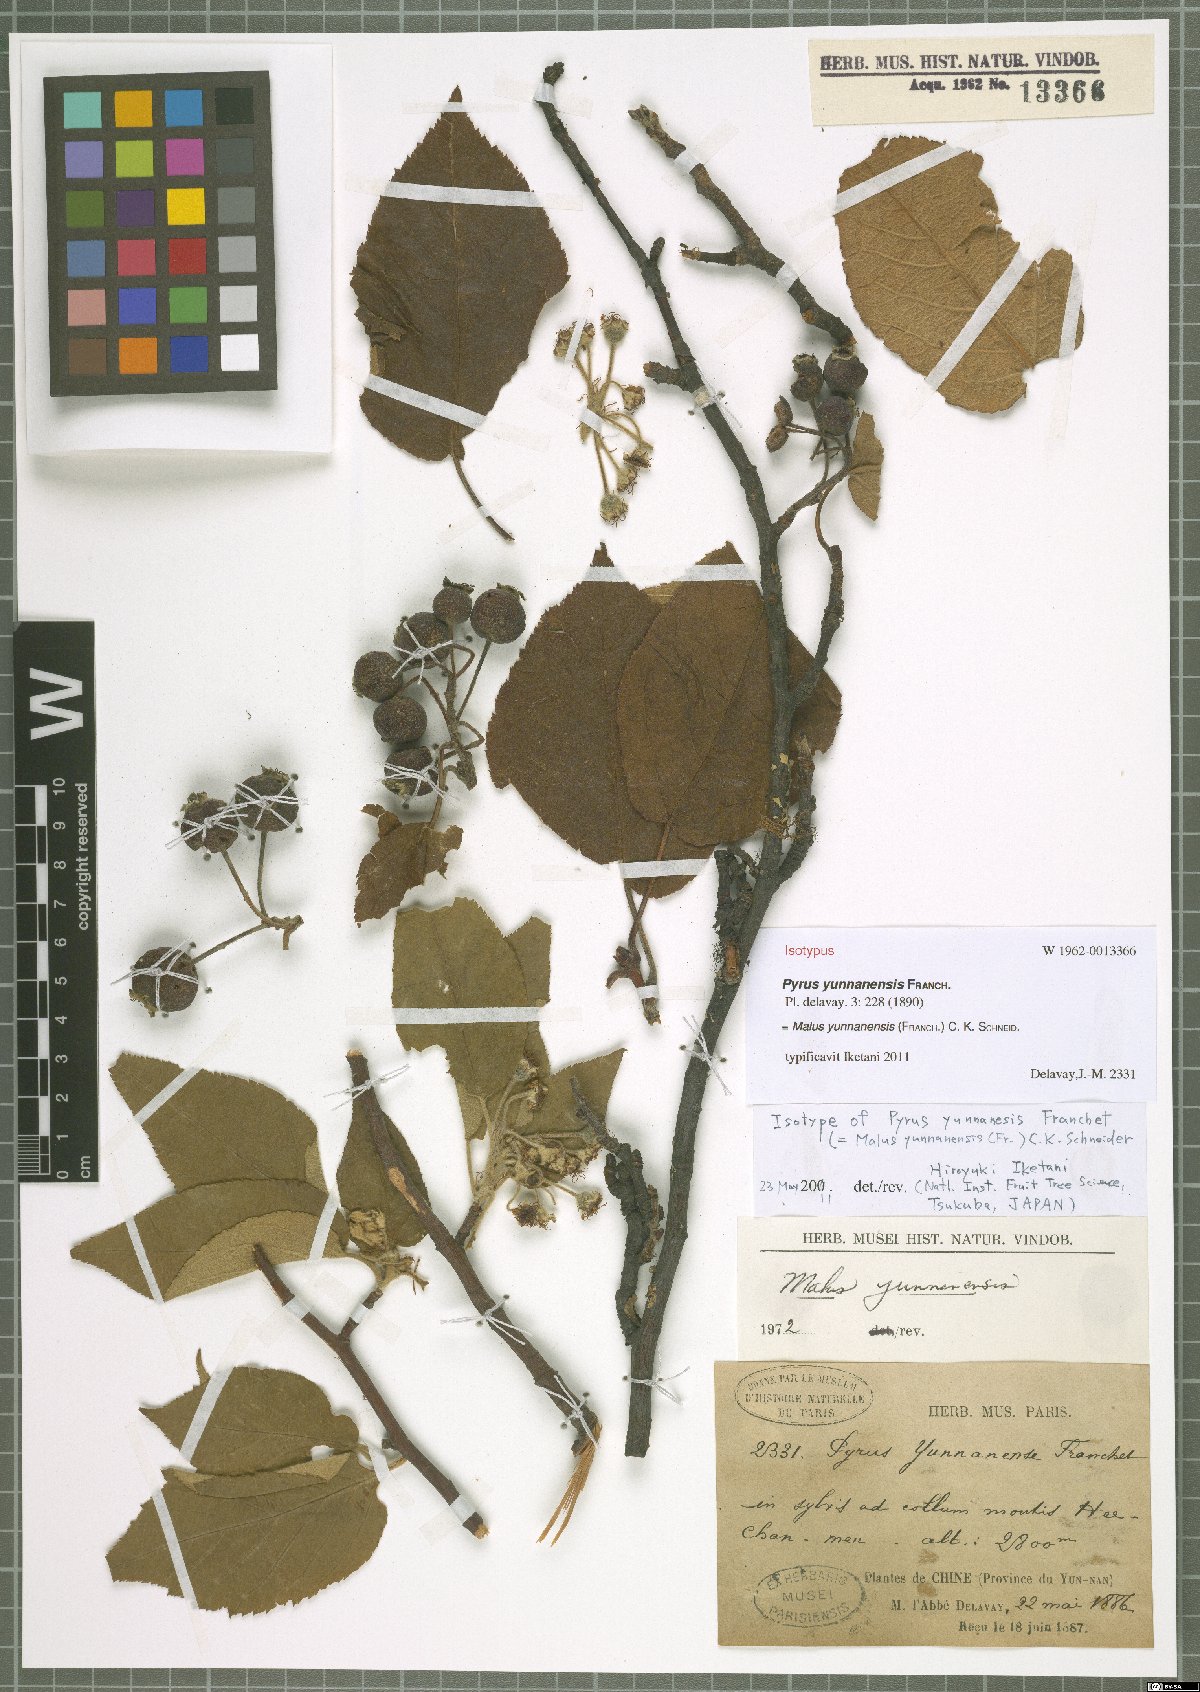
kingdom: Plantae
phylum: Tracheophyta
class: Magnoliopsida
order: Rosales
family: Rosaceae
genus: Malus
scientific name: Malus yunnanensis
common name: Yunnan crabapple
